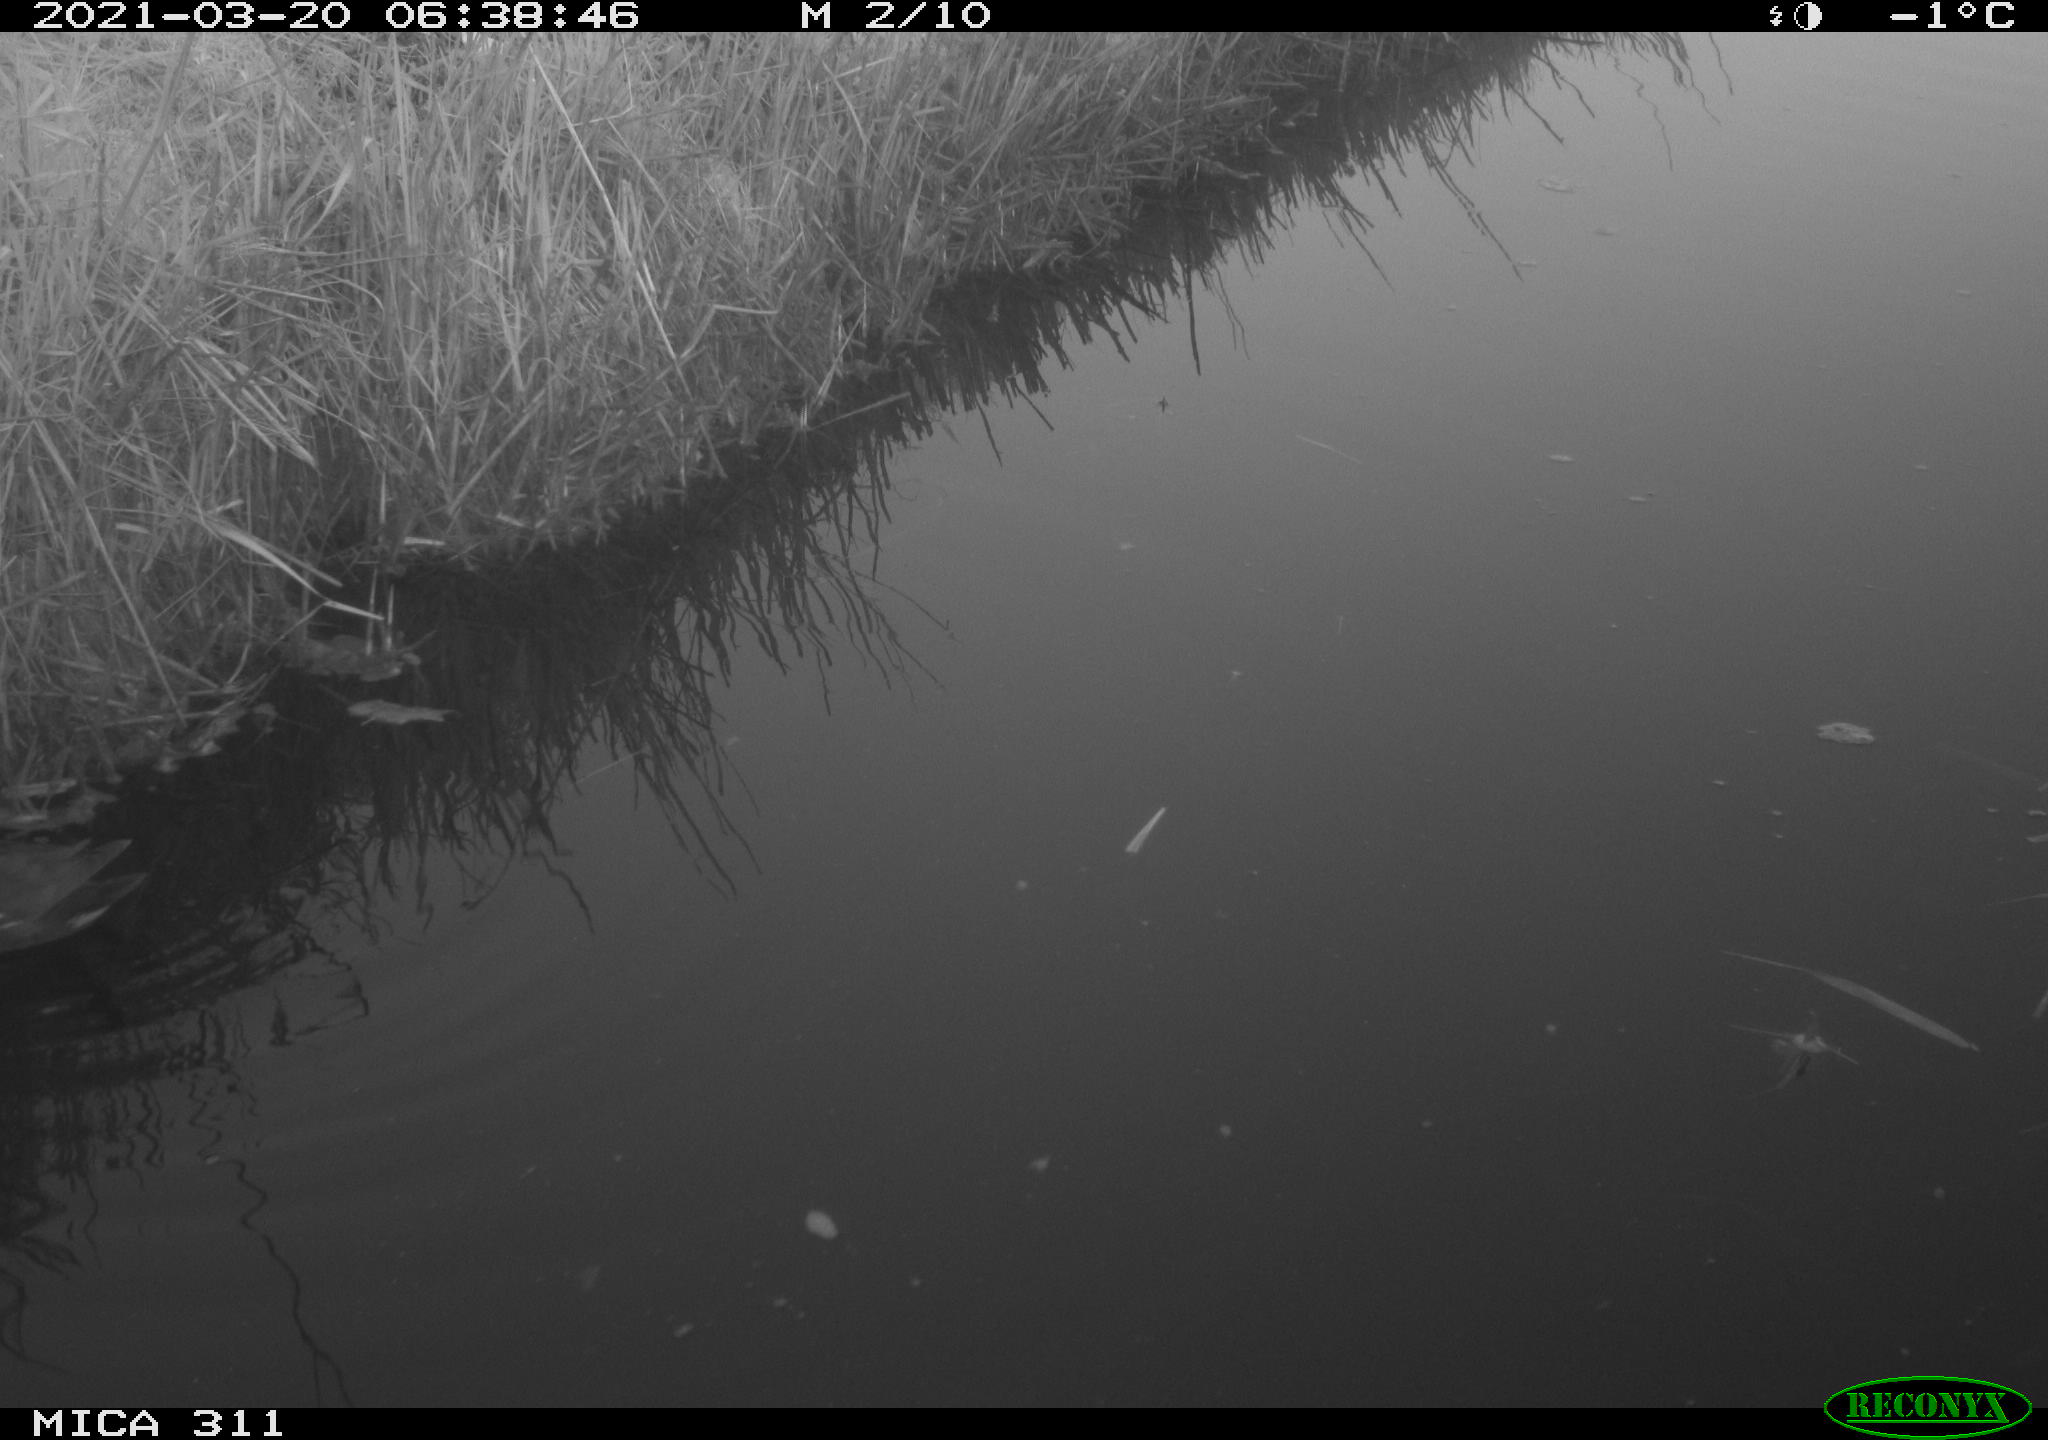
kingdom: Animalia
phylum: Chordata
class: Aves
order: Gruiformes
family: Rallidae
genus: Gallinula
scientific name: Gallinula chloropus
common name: Common moorhen
